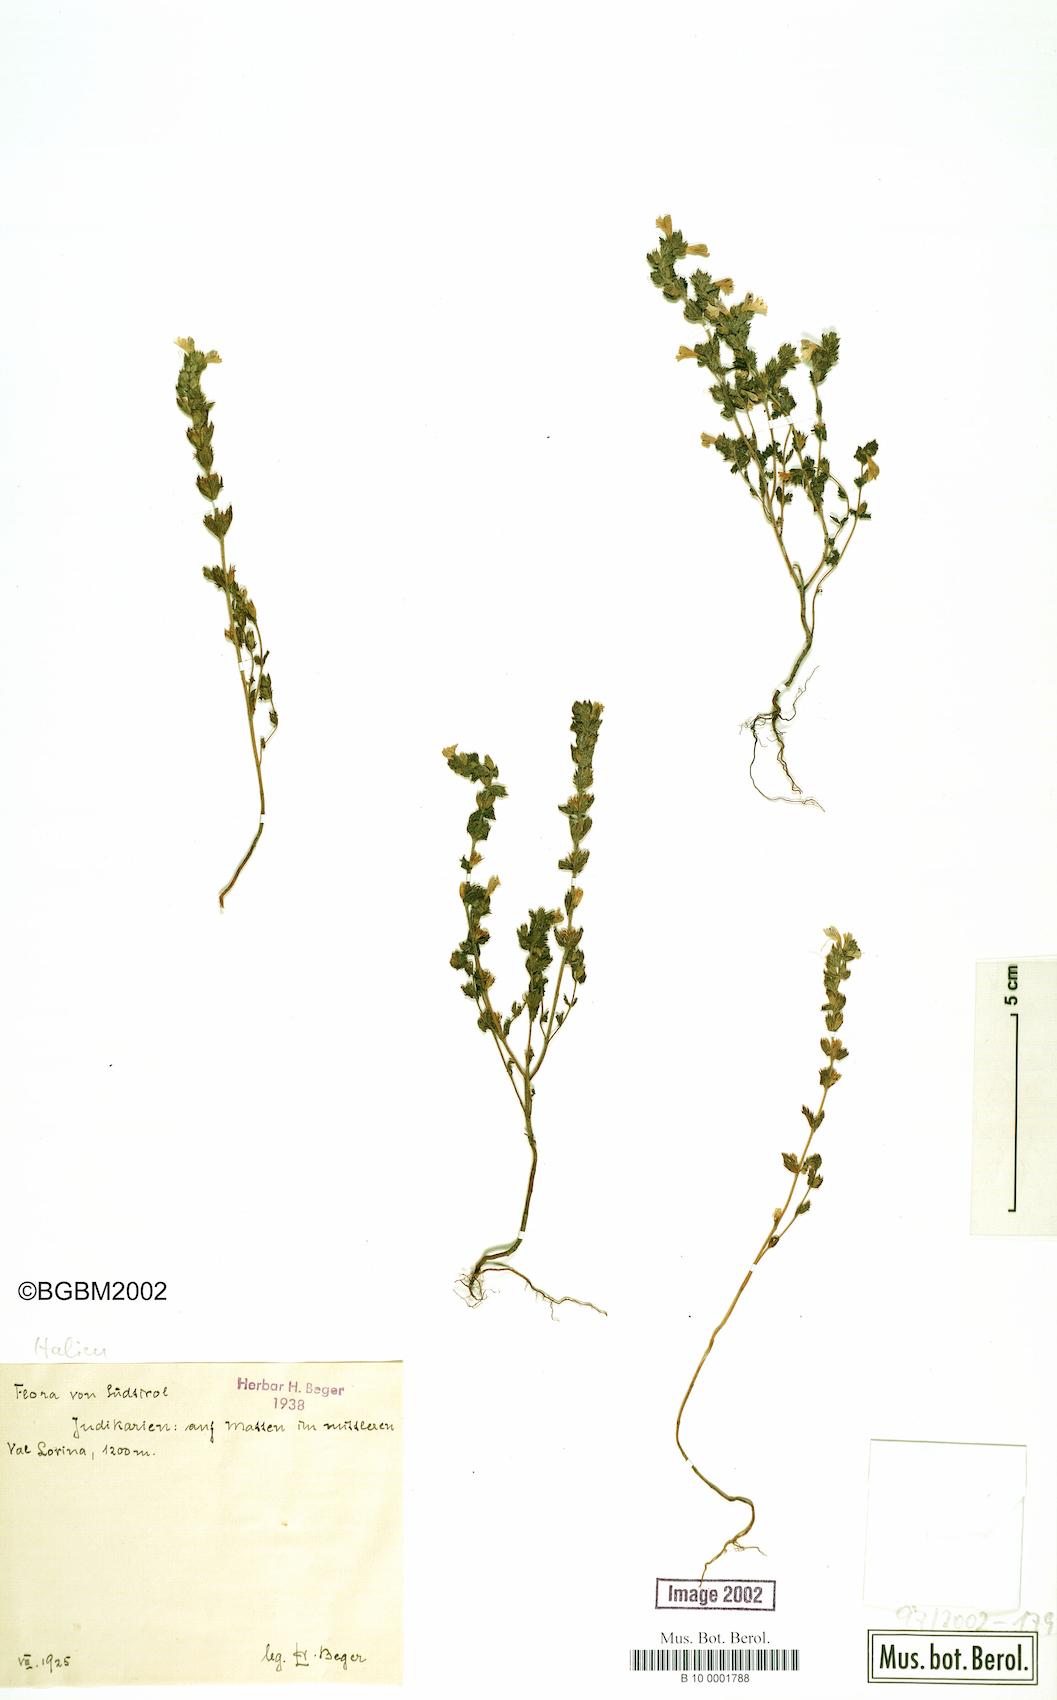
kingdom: Plantae
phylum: Tracheophyta
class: Magnoliopsida
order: Lamiales
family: Orobanchaceae
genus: Euphrasia
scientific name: Euphrasia
